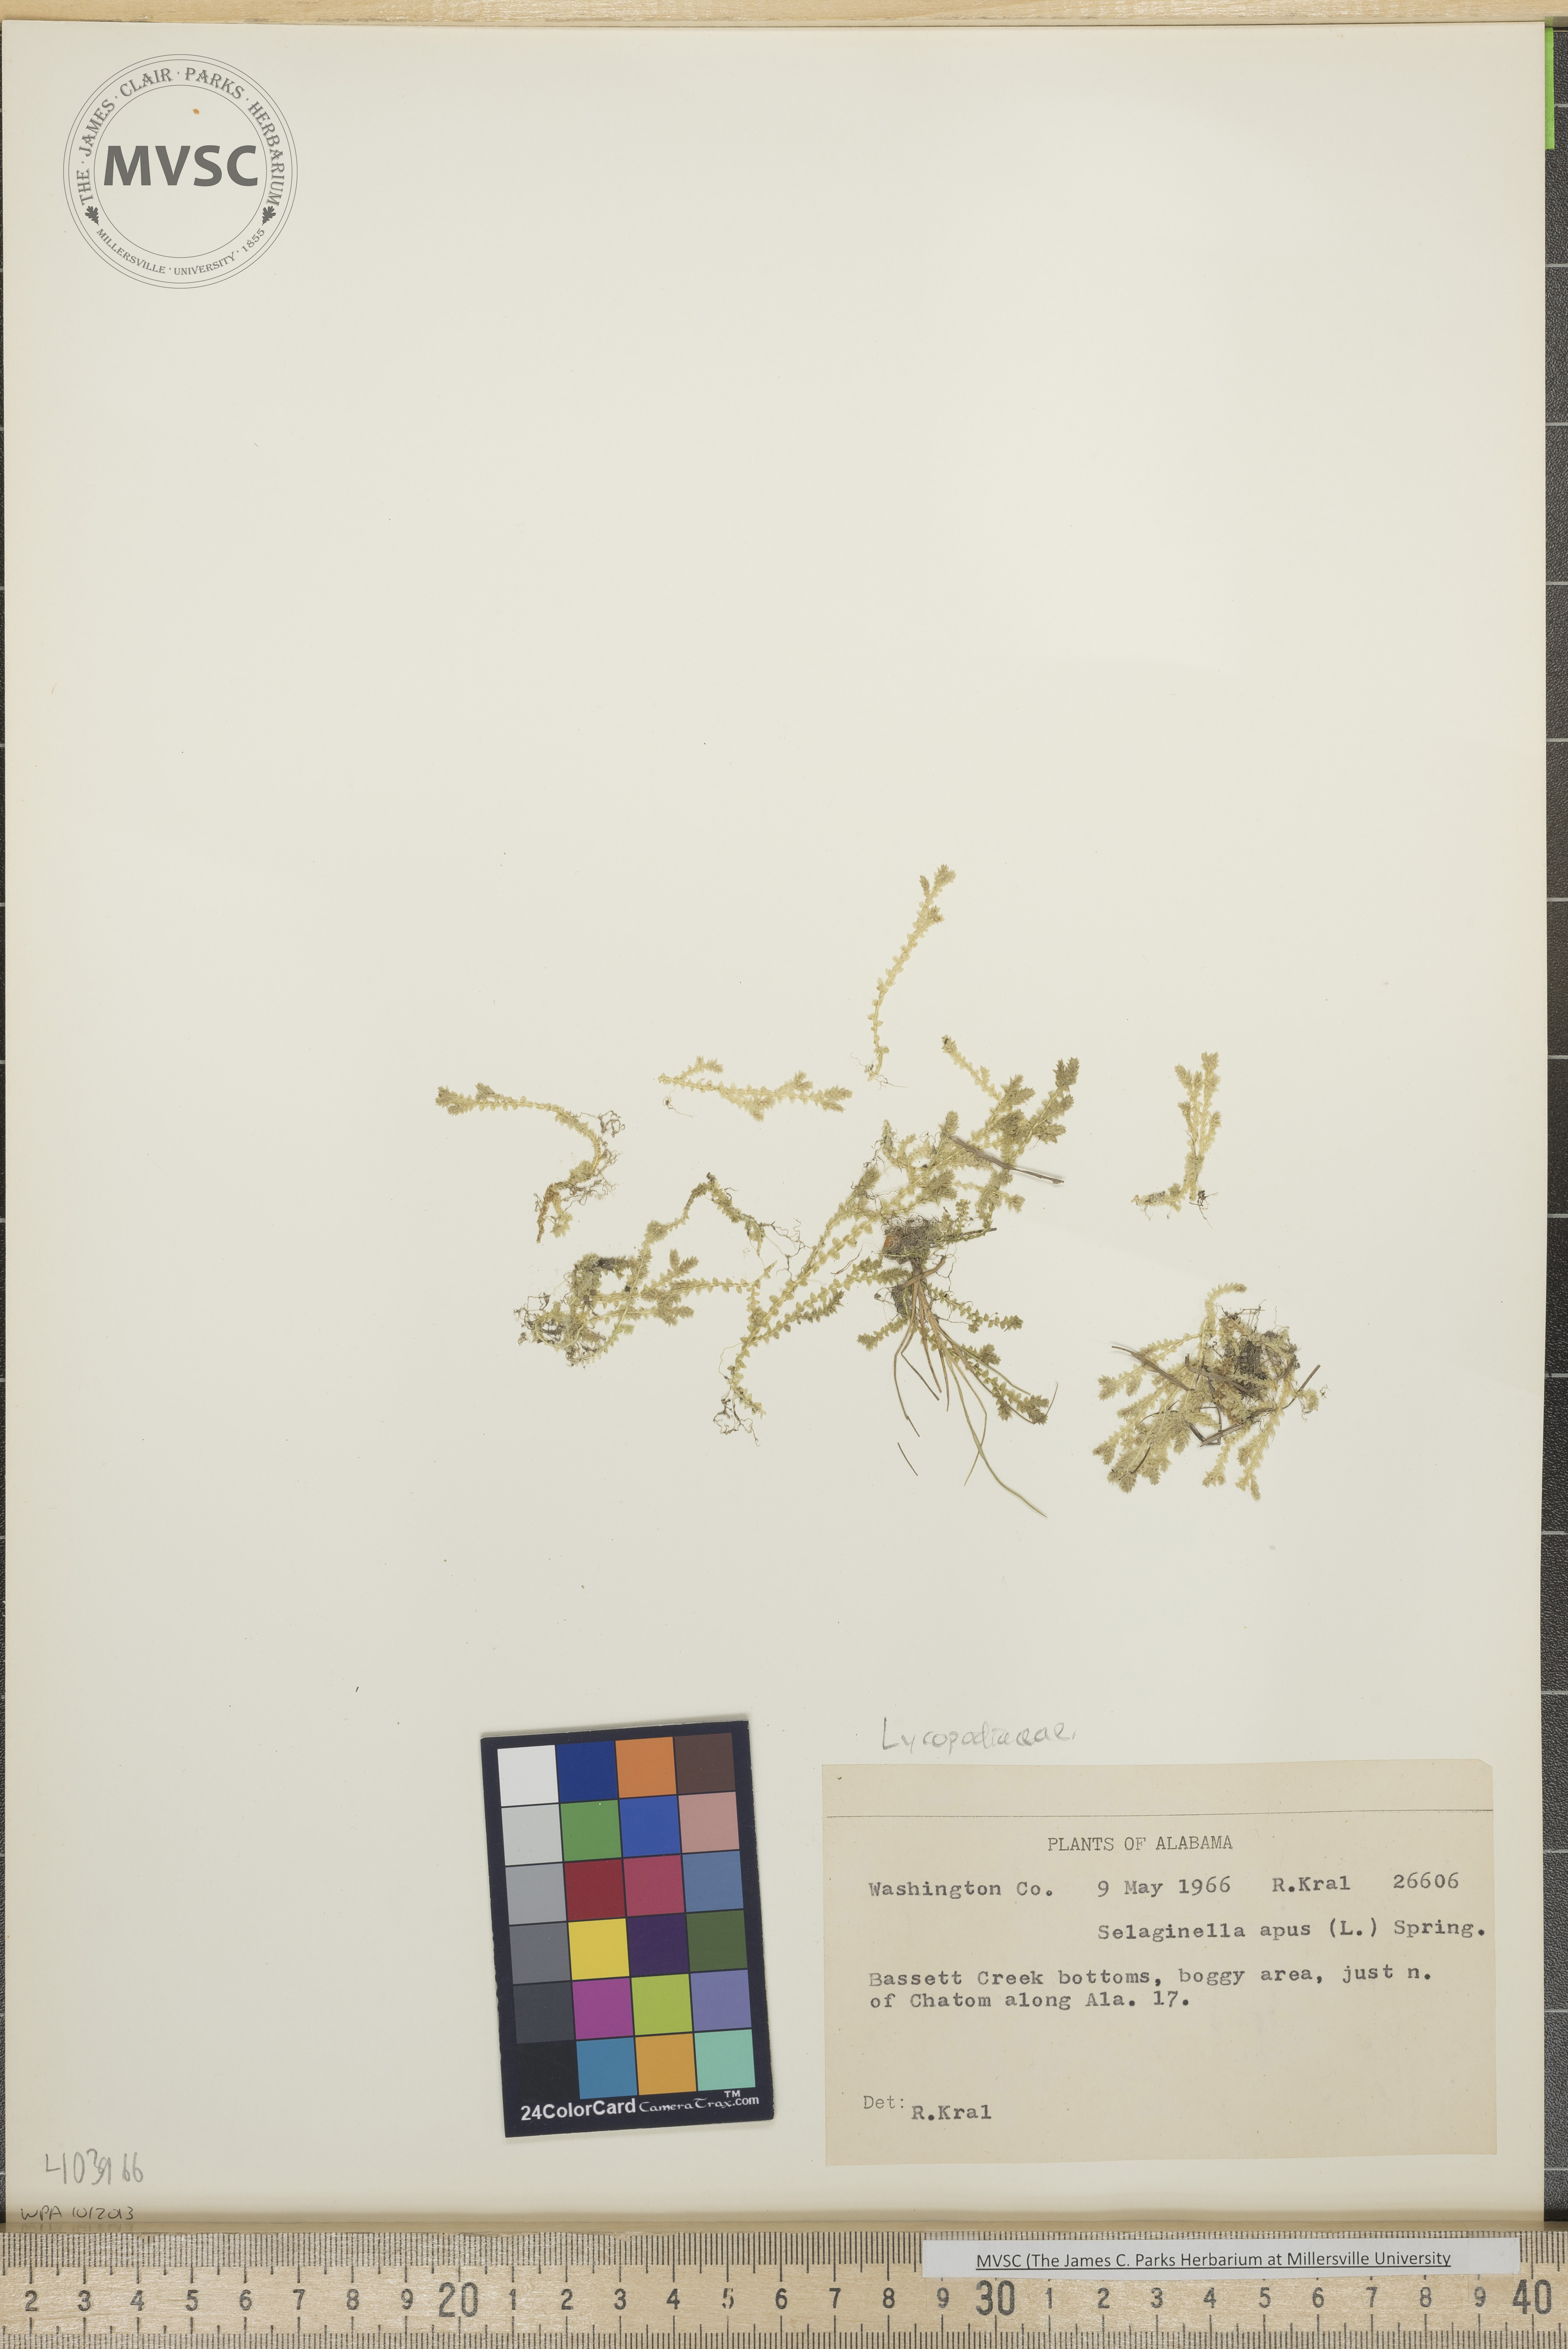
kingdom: Plantae
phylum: Tracheophyta
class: Lycopodiopsida
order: Selaginellales
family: Selaginellaceae
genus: Selaginella
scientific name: Selaginella apoda
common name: Creeping spikemoss
